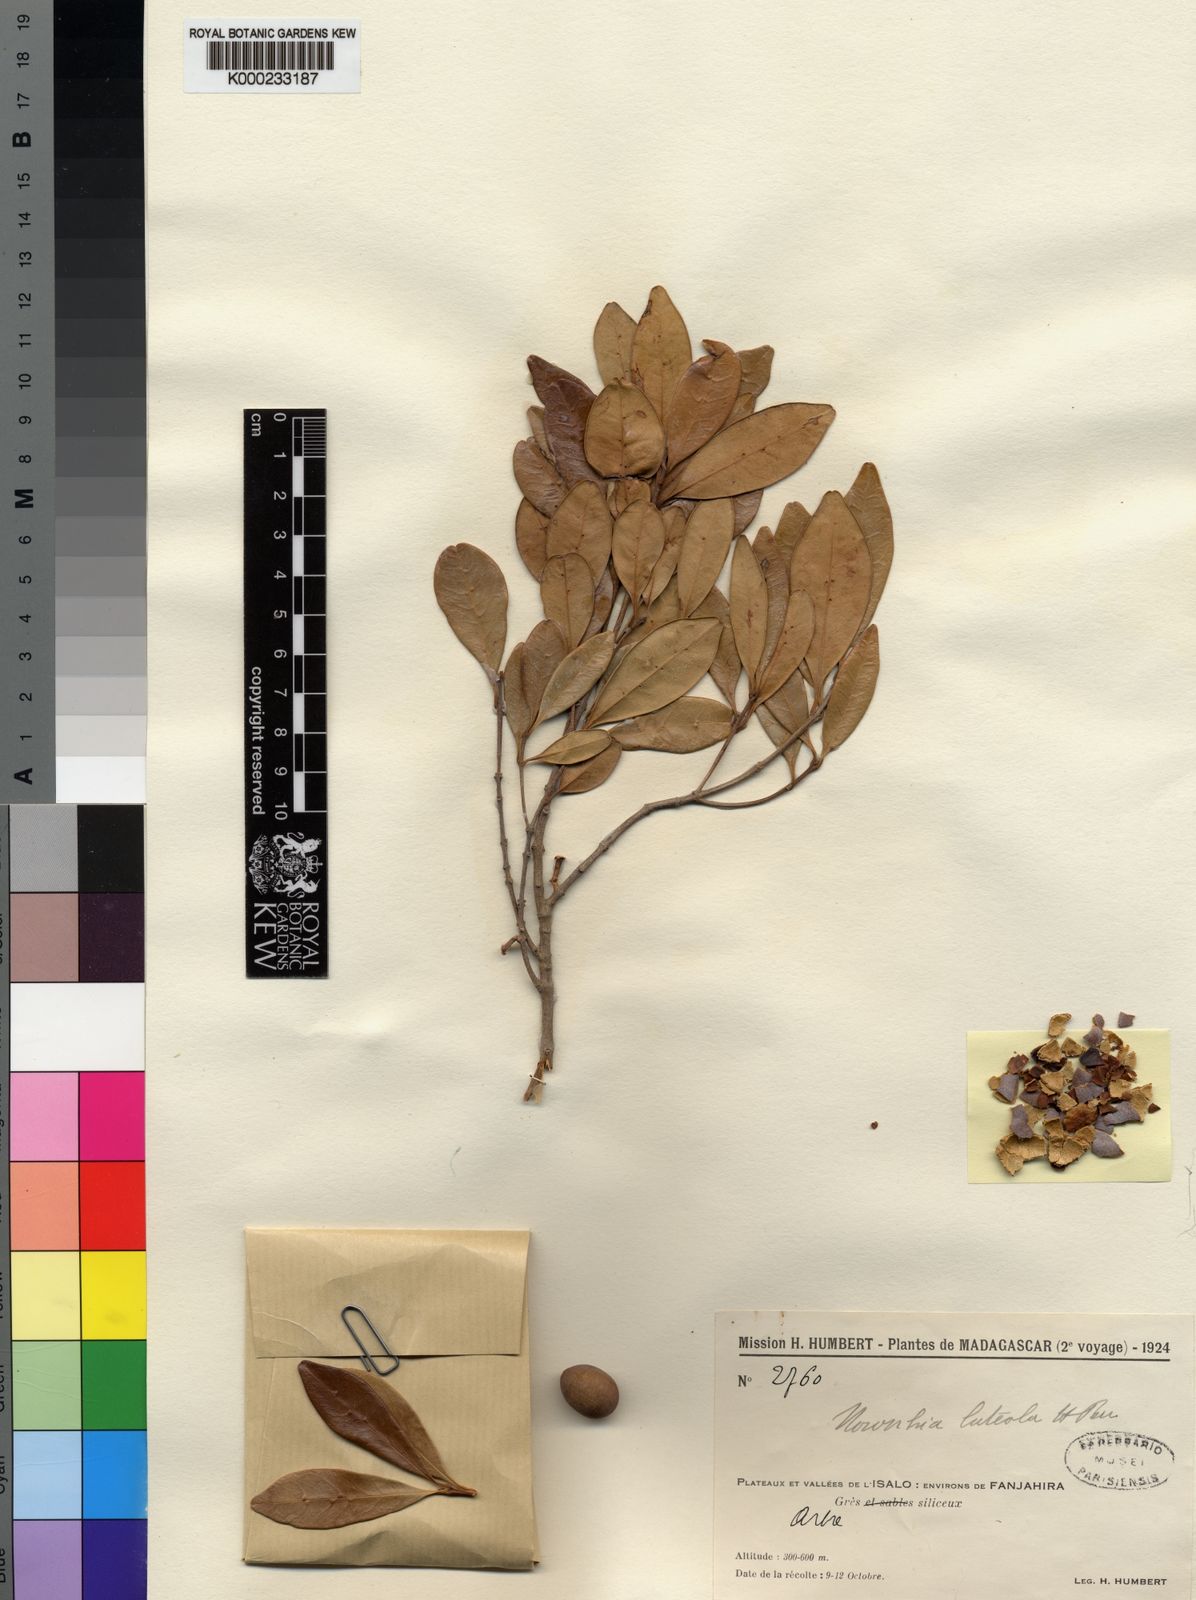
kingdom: Plantae
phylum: Tracheophyta
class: Magnoliopsida
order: Lamiales
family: Oleaceae
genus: Noronhia
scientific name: Noronhia luteola
